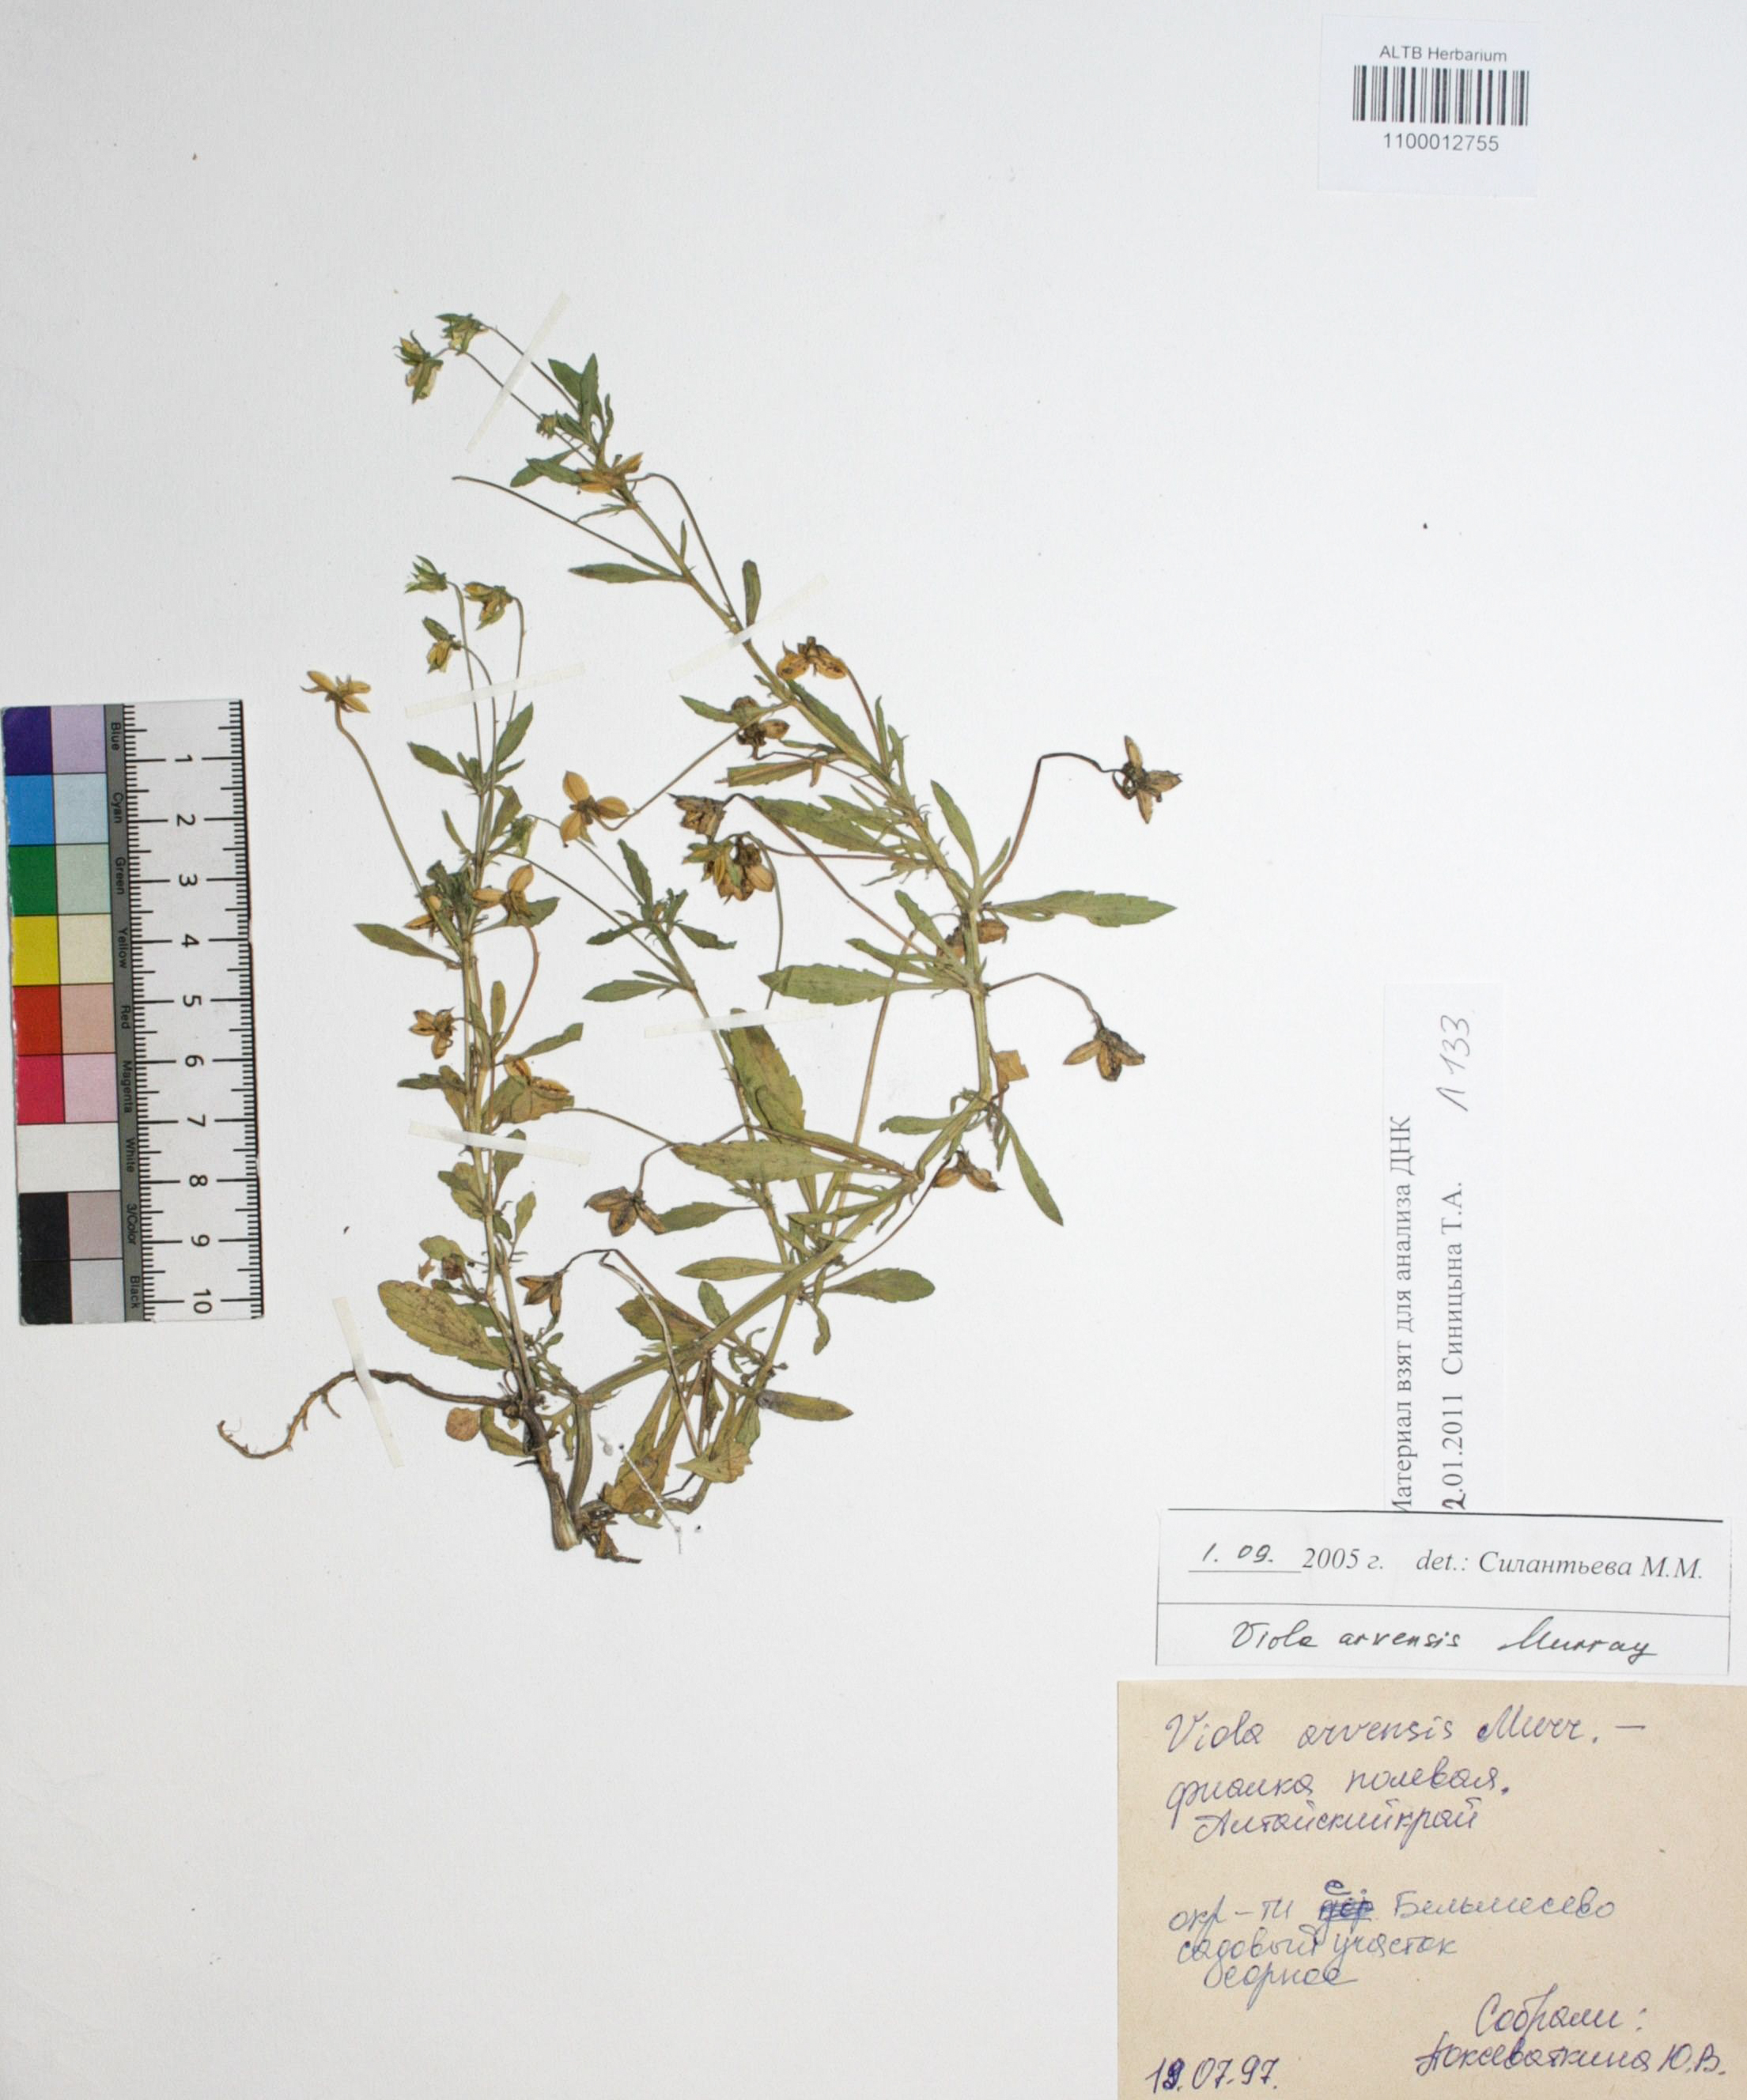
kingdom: Plantae
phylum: Tracheophyta
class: Magnoliopsida
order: Malpighiales
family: Violaceae
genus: Viola
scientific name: Viola arvensis
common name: Field pansy
